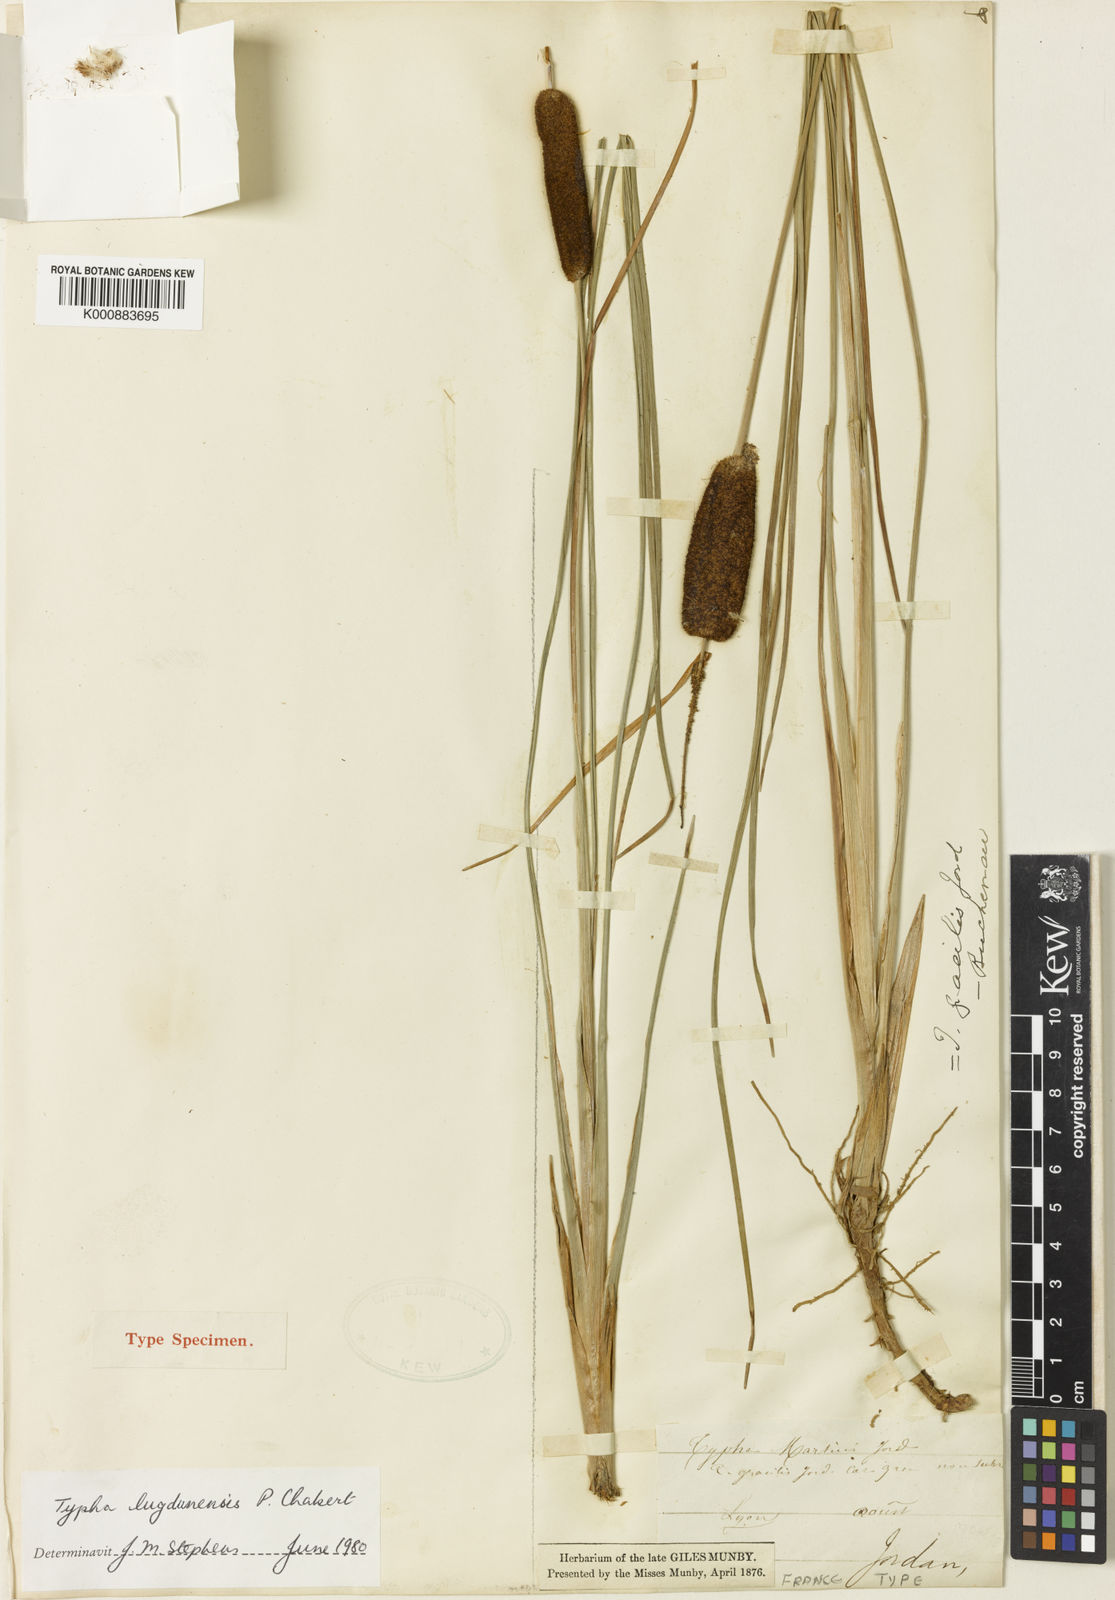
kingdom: Plantae
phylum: Tracheophyta
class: Liliopsida
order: Poales
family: Typhaceae
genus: Typha
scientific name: Typha lugdunensis
